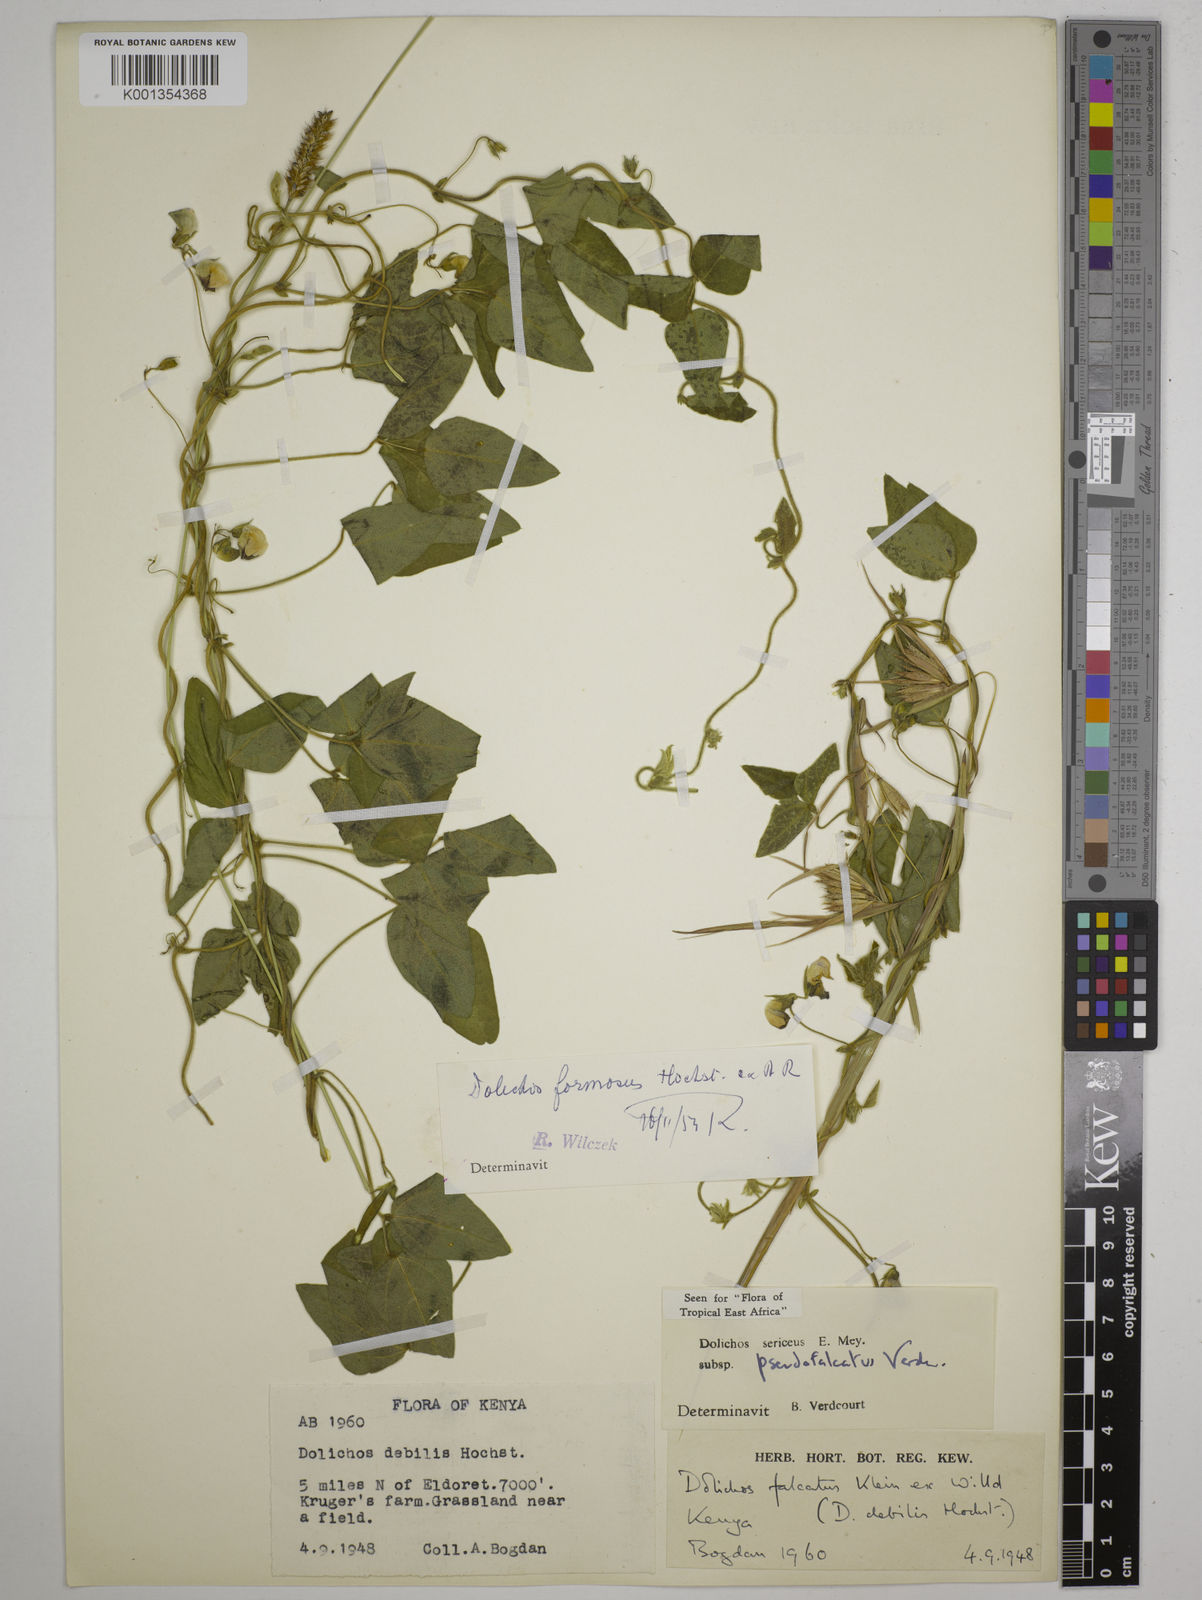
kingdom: Plantae
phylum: Tracheophyta
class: Magnoliopsida
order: Fabales
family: Fabaceae
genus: Dolichos
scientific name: Dolichos
